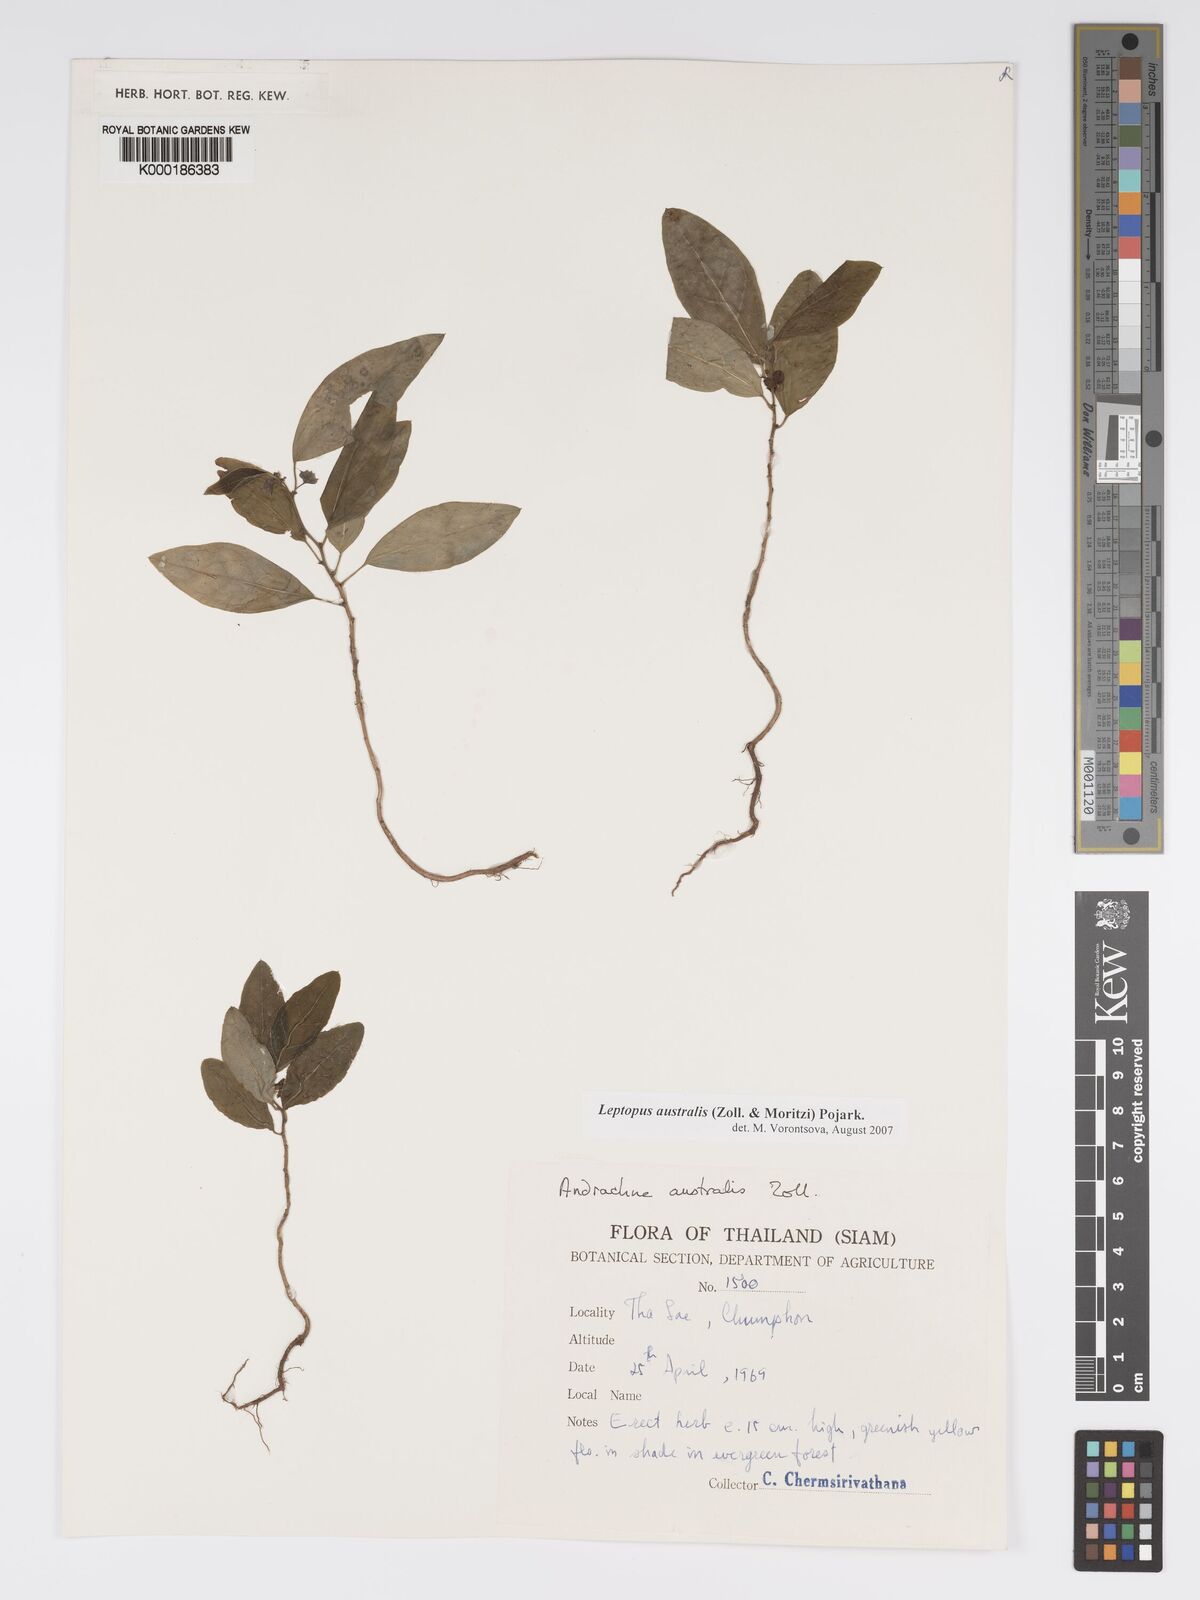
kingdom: Plantae
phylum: Tracheophyta
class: Magnoliopsida
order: Malpighiales
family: Phyllanthaceae
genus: Andrachne
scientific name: Andrachne
